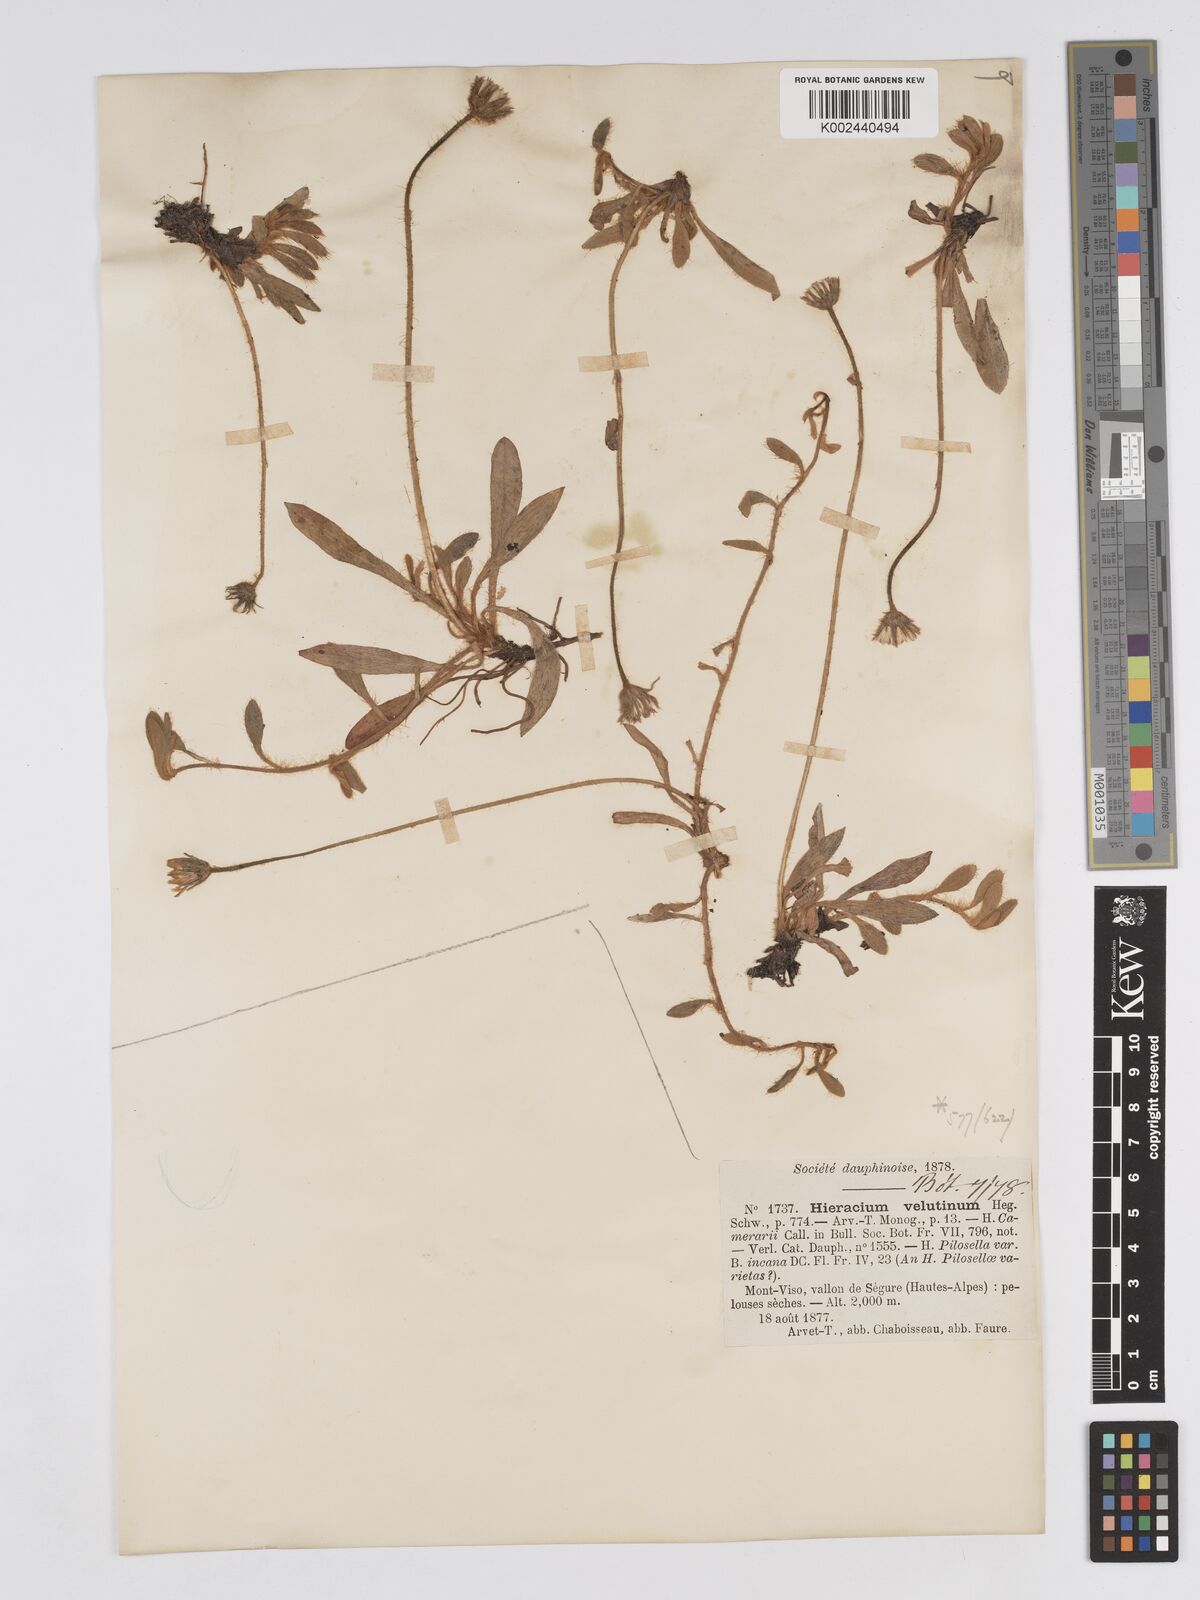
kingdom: Plantae
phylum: Tracheophyta
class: Magnoliopsida
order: Asterales
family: Asteraceae
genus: Pilosella
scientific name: Pilosella velutina
